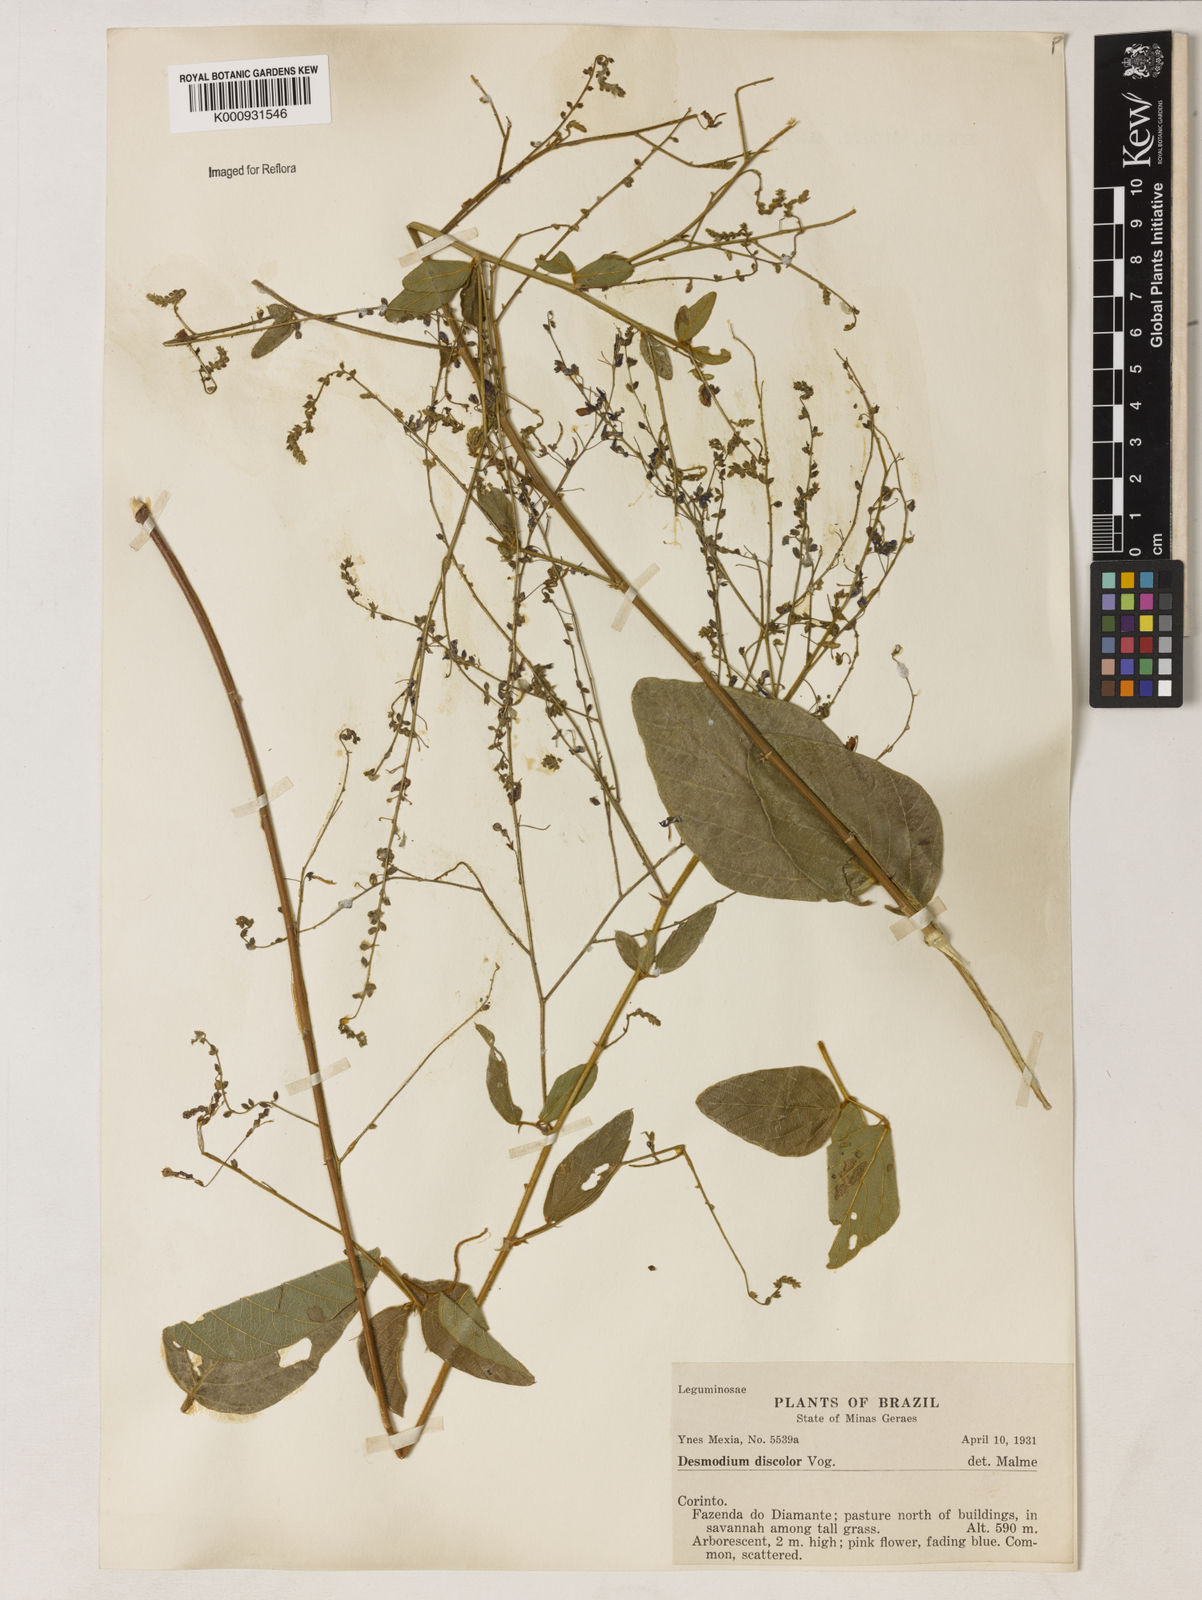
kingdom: Plantae
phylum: Tracheophyta
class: Magnoliopsida
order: Fabales
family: Fabaceae
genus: Desmodium
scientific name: Desmodium subsecundum
